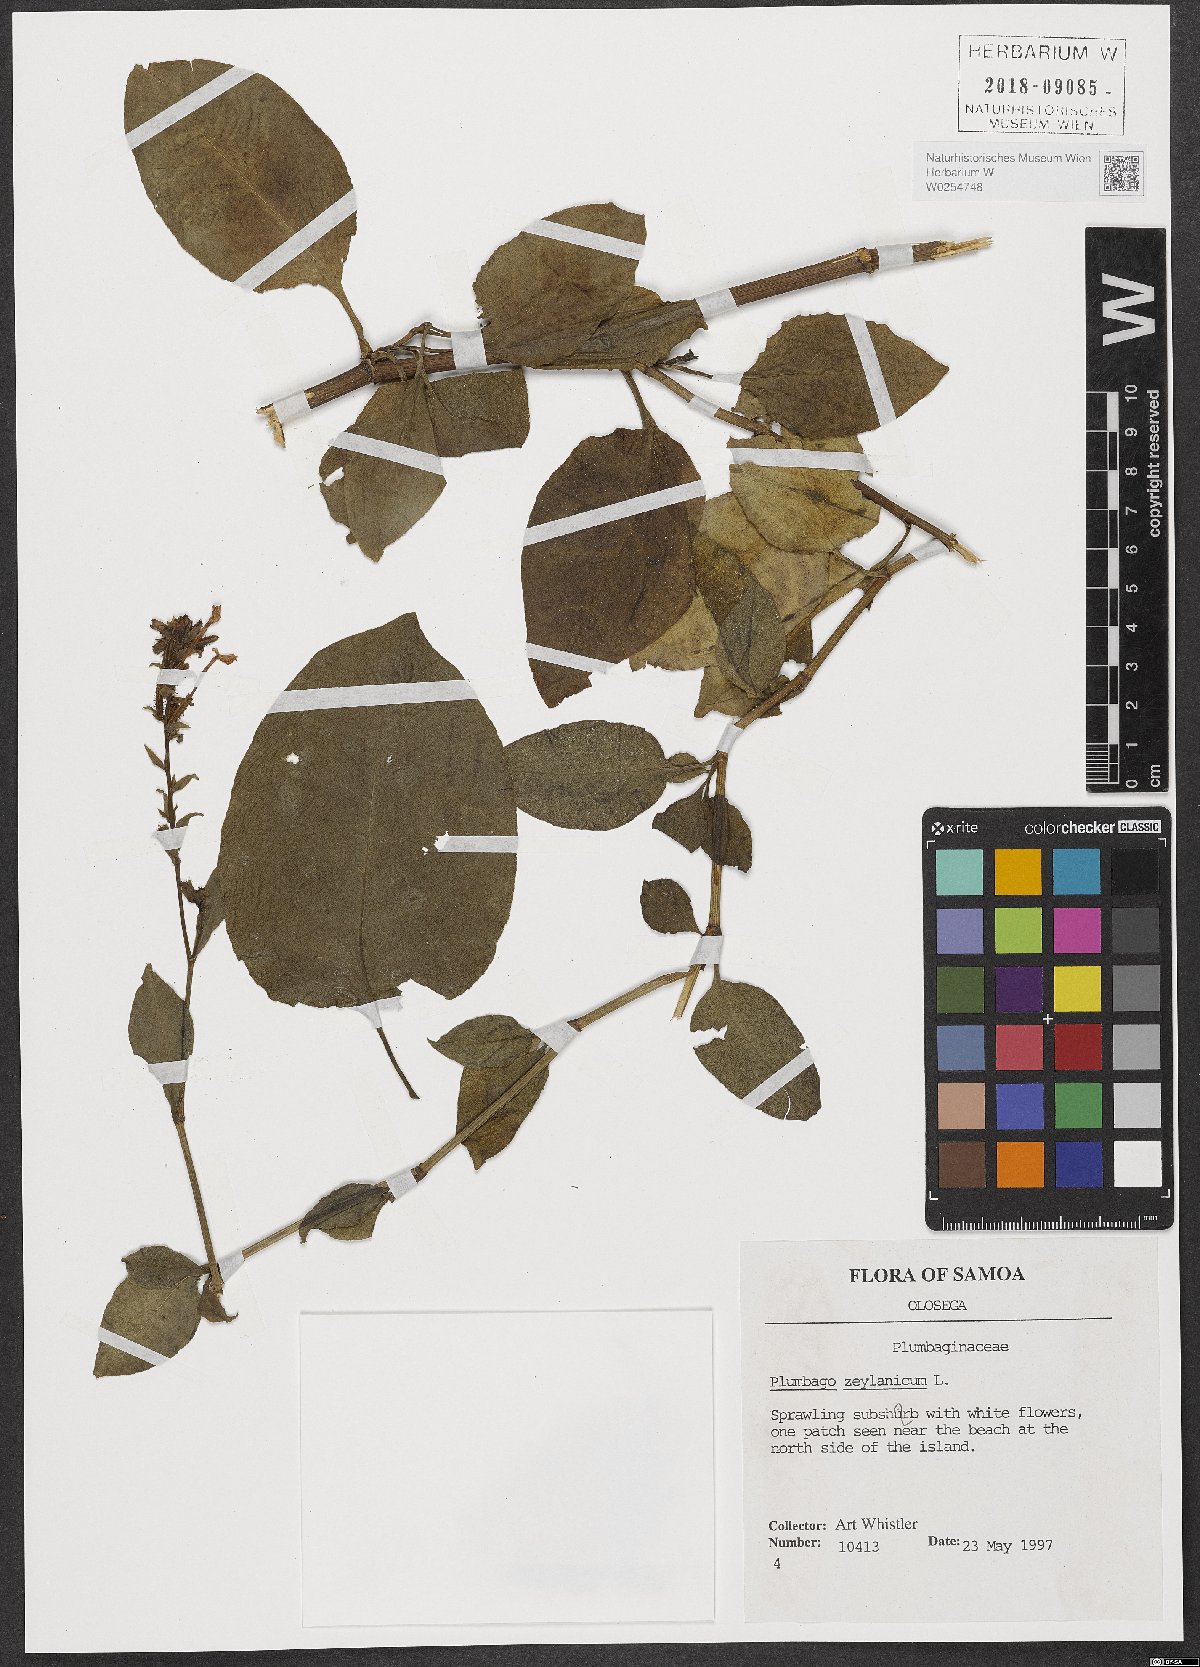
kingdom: Plantae
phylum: Tracheophyta
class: Magnoliopsida
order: Caryophyllales
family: Plumbaginaceae
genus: Plumbago
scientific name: Plumbago zeylanica
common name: Doctorbush
